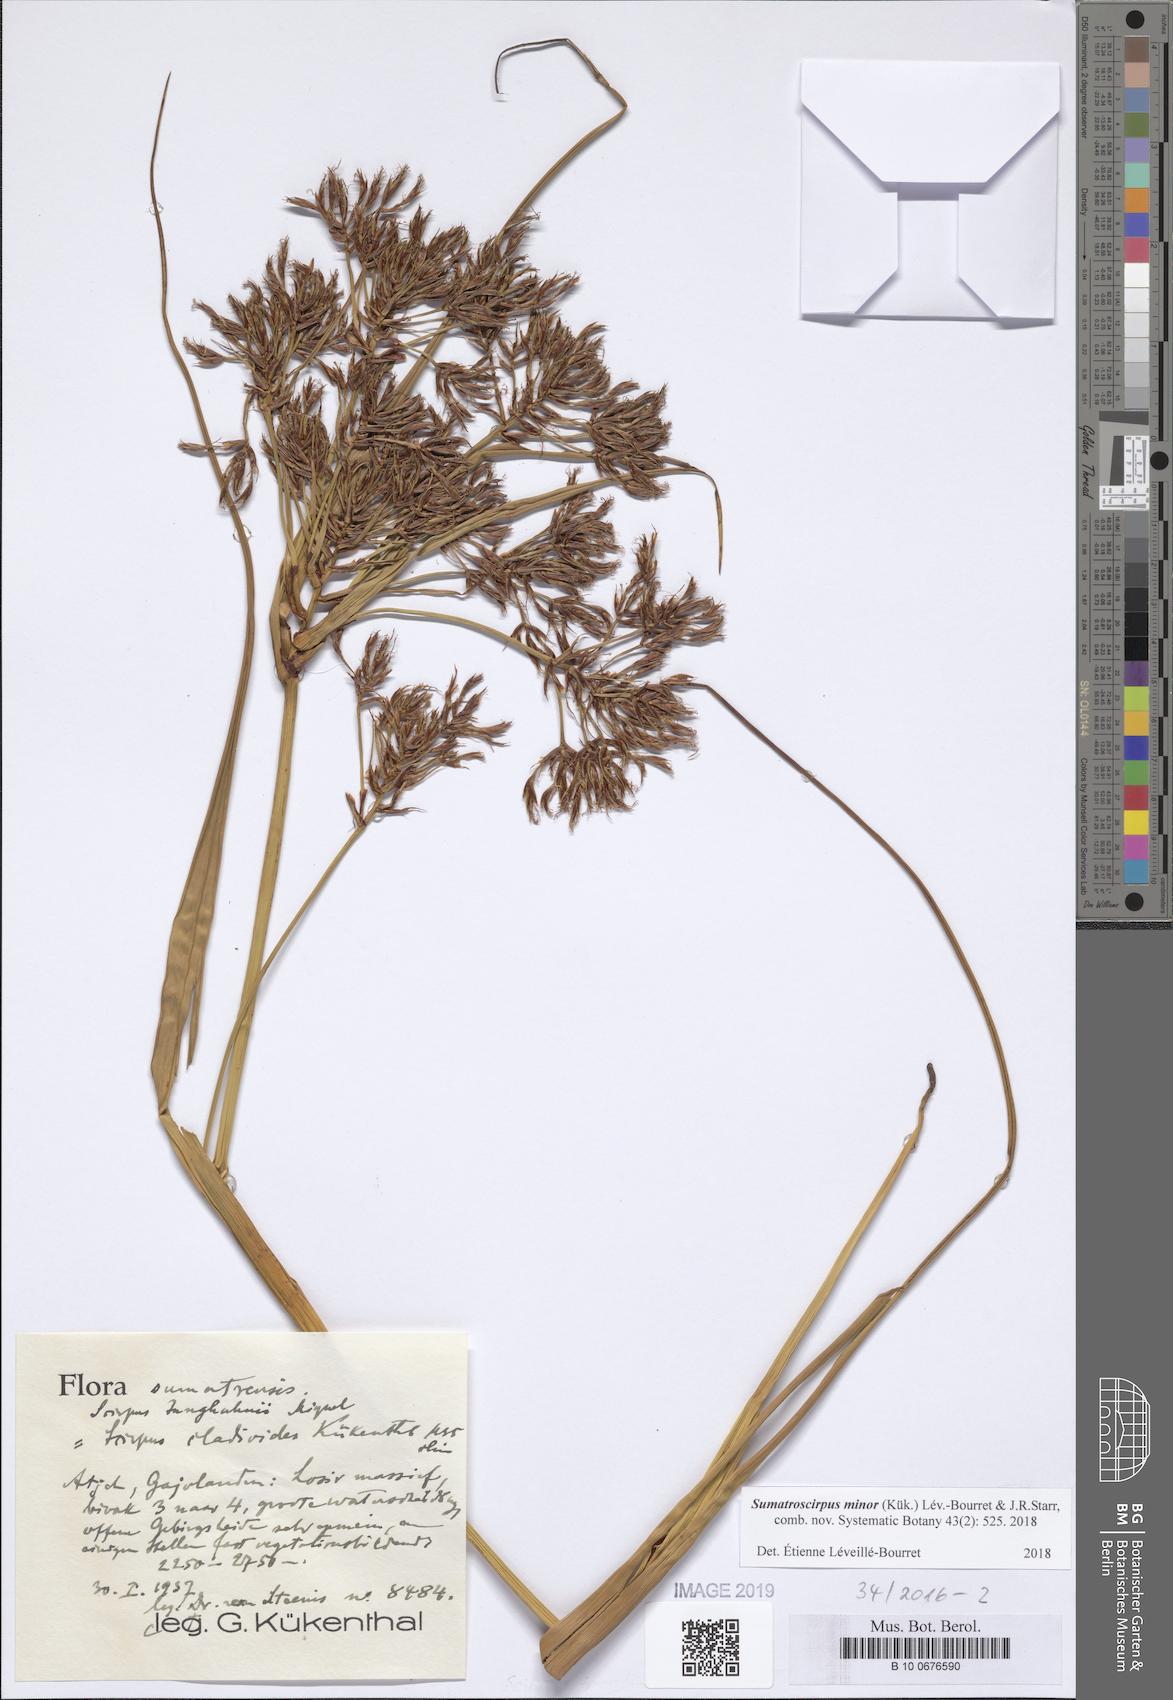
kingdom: Plantae
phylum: Tracheophyta
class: Liliopsida
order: Poales
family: Cyperaceae
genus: Sumatroscirpus
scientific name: Sumatroscirpus minor
